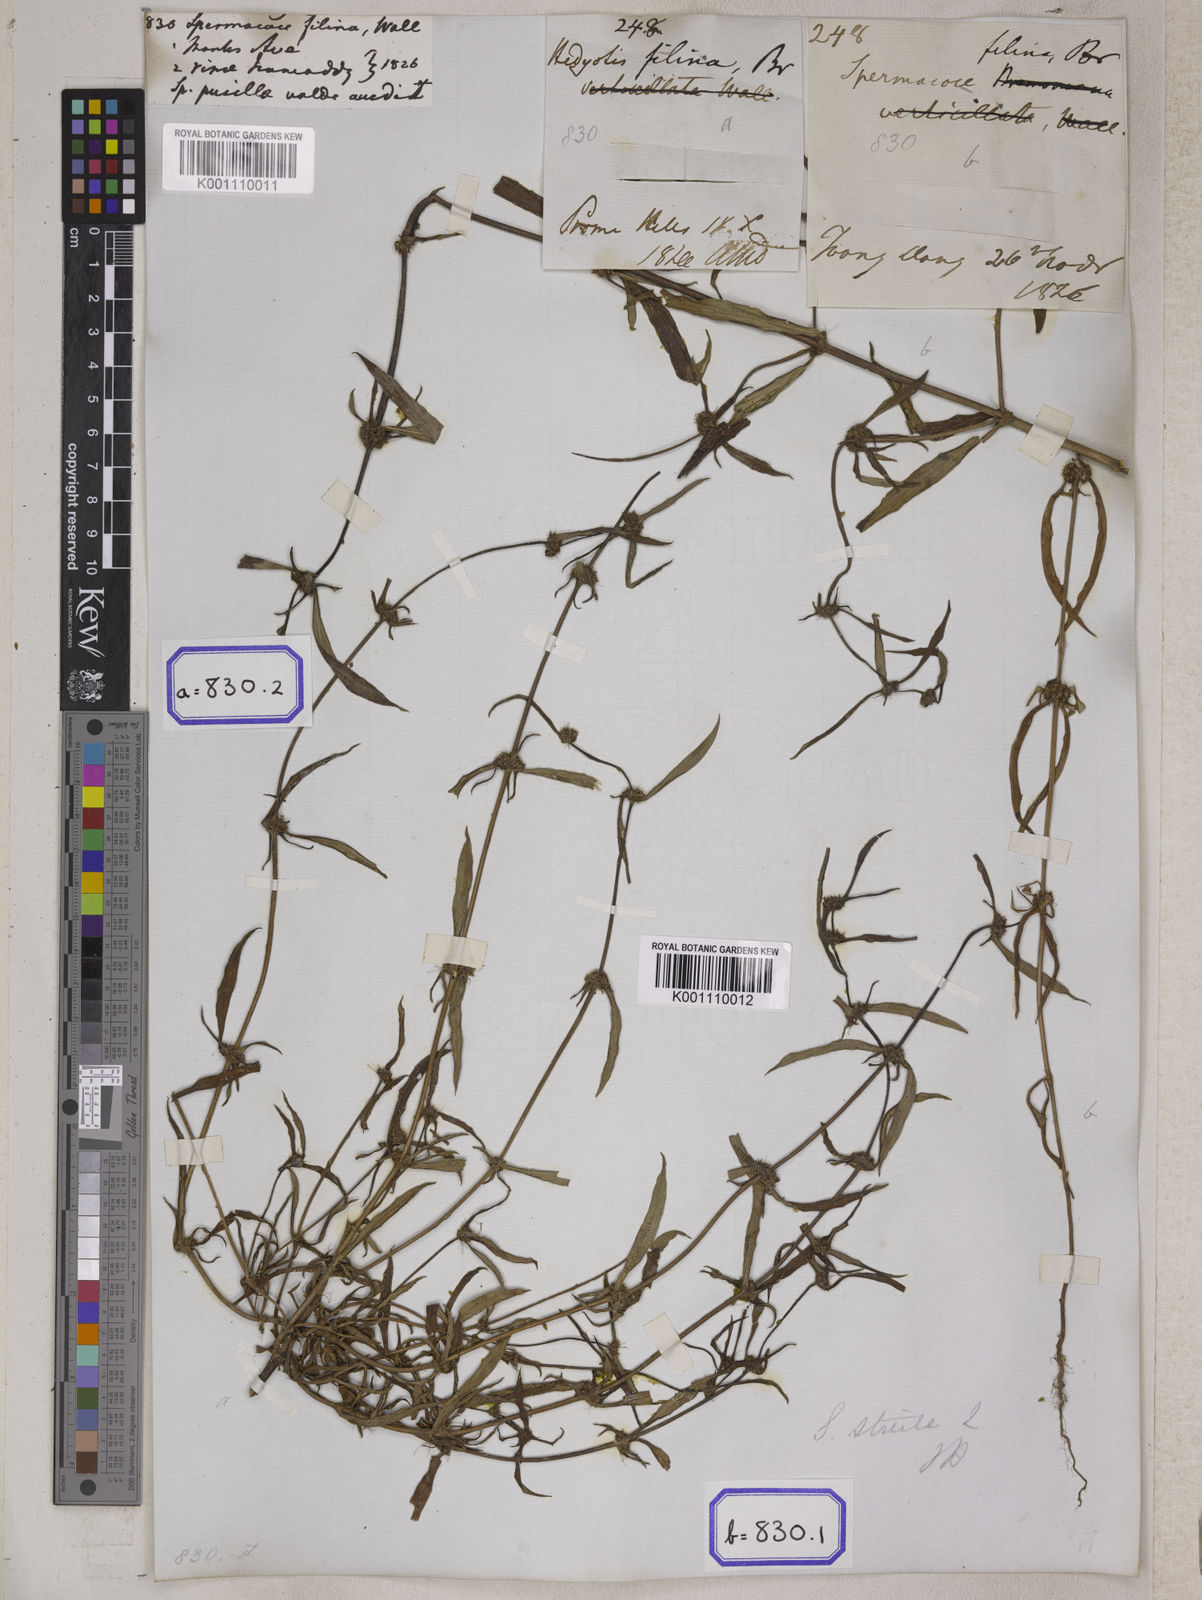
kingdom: Plantae
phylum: Tracheophyta
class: Magnoliopsida
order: Gentianales
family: Rubiaceae
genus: Spermacoce
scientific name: Spermacoce pusilla
